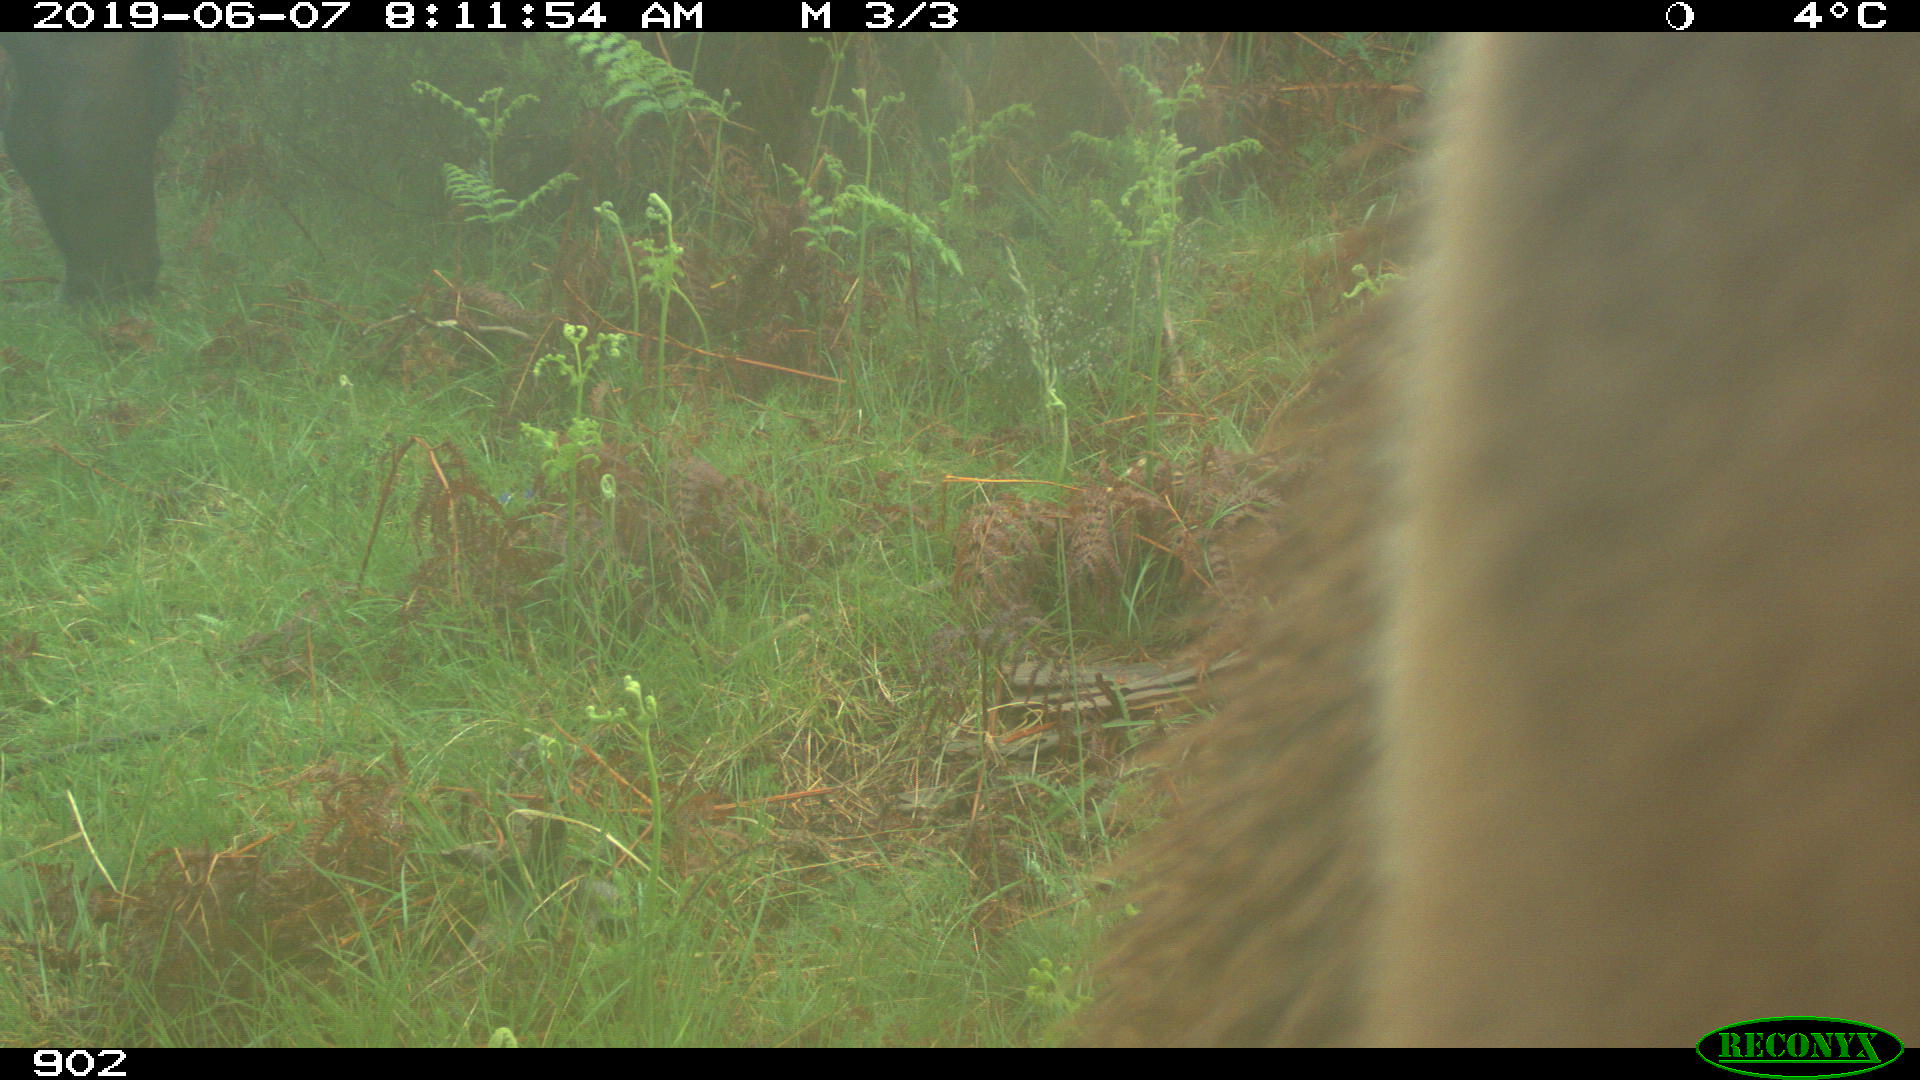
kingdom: Animalia
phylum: Chordata
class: Mammalia
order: Perissodactyla
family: Equidae
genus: Equus
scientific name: Equus caballus
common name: Horse
